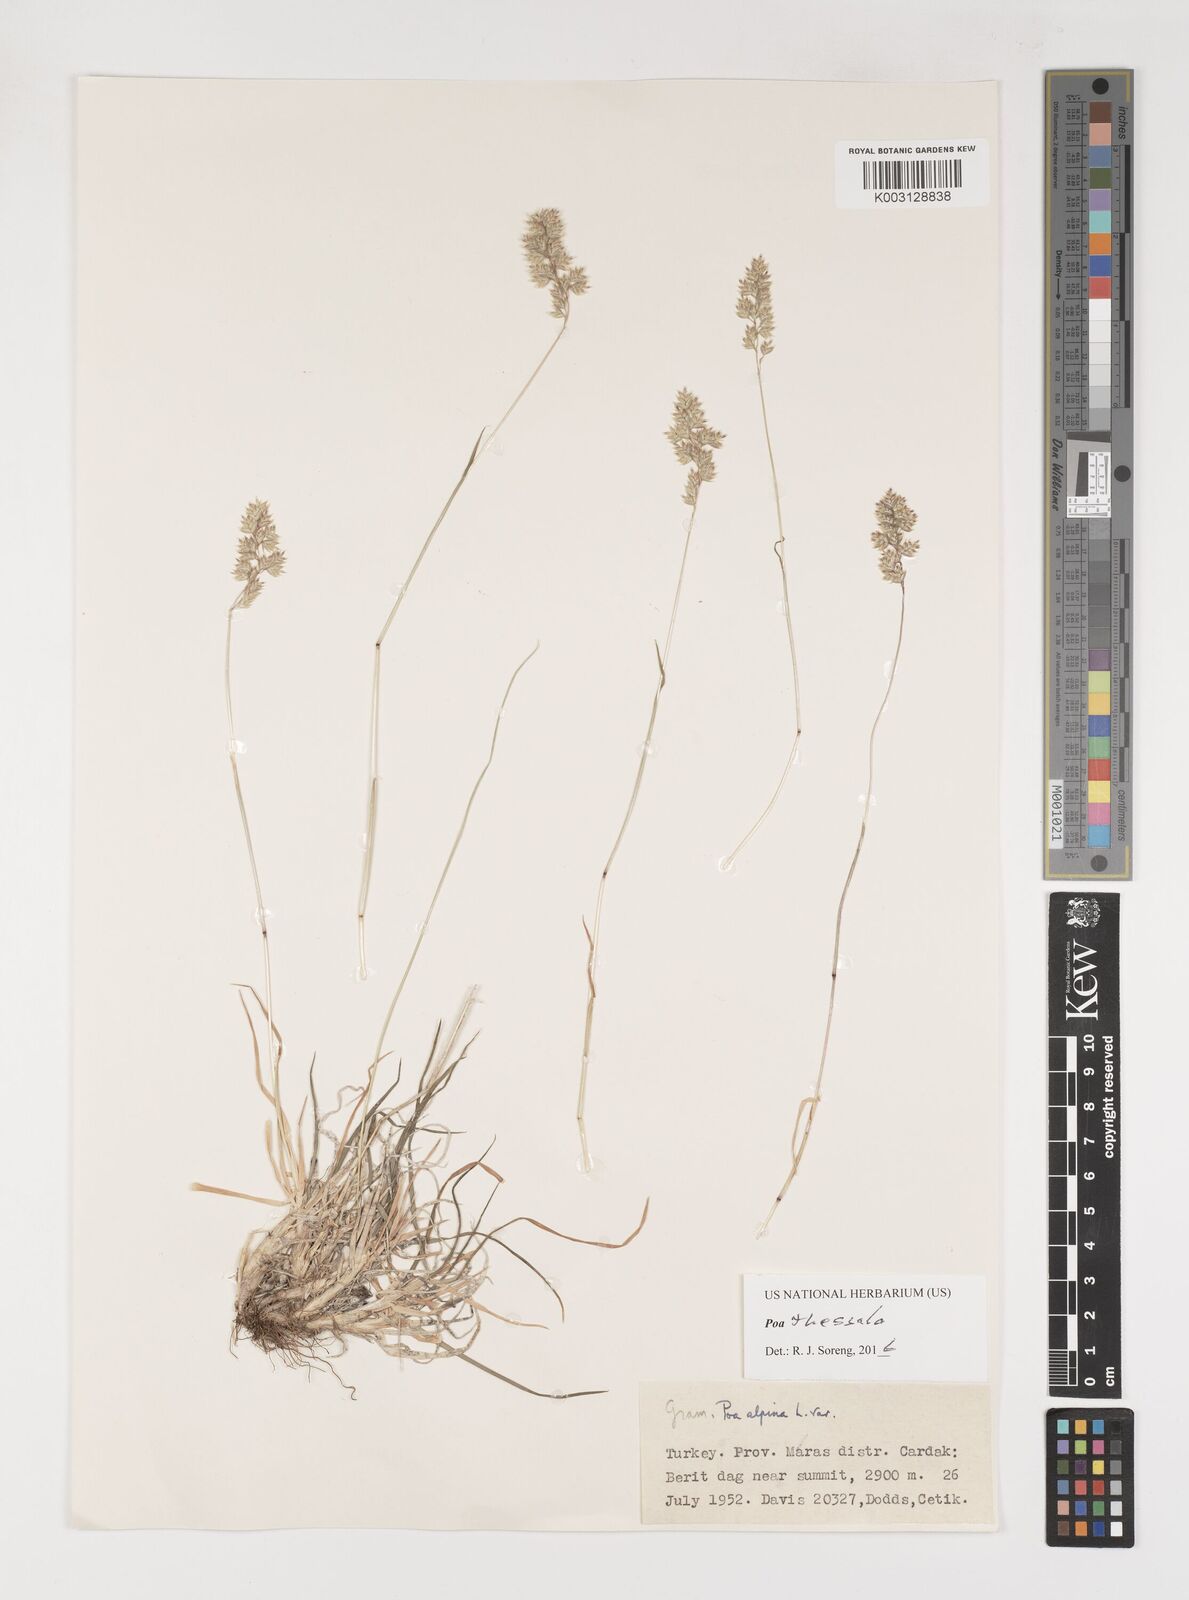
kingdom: Plantae
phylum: Tracheophyta
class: Liliopsida
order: Poales
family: Poaceae
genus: Poa
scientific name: Poa thessala
